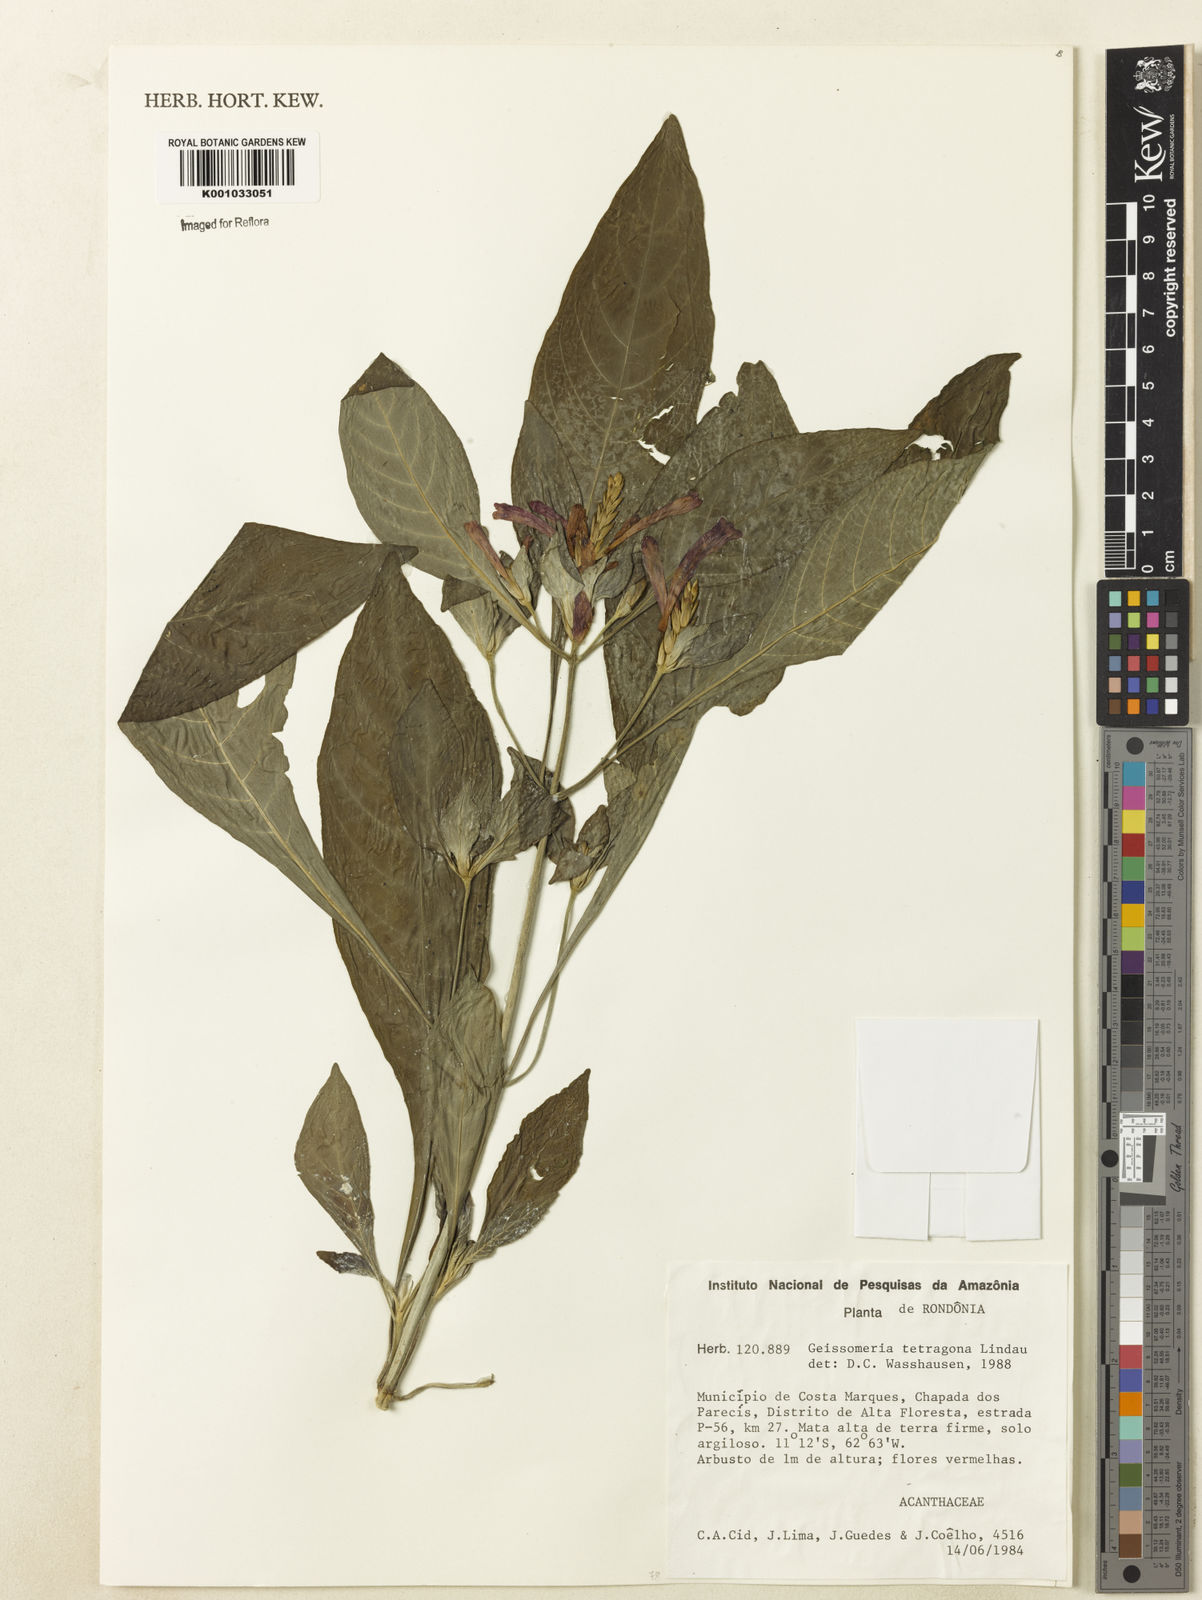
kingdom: Plantae
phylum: Tracheophyta
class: Magnoliopsida
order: Lamiales
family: Acanthaceae
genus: Aphelandra
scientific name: Aphelandra longiflora
